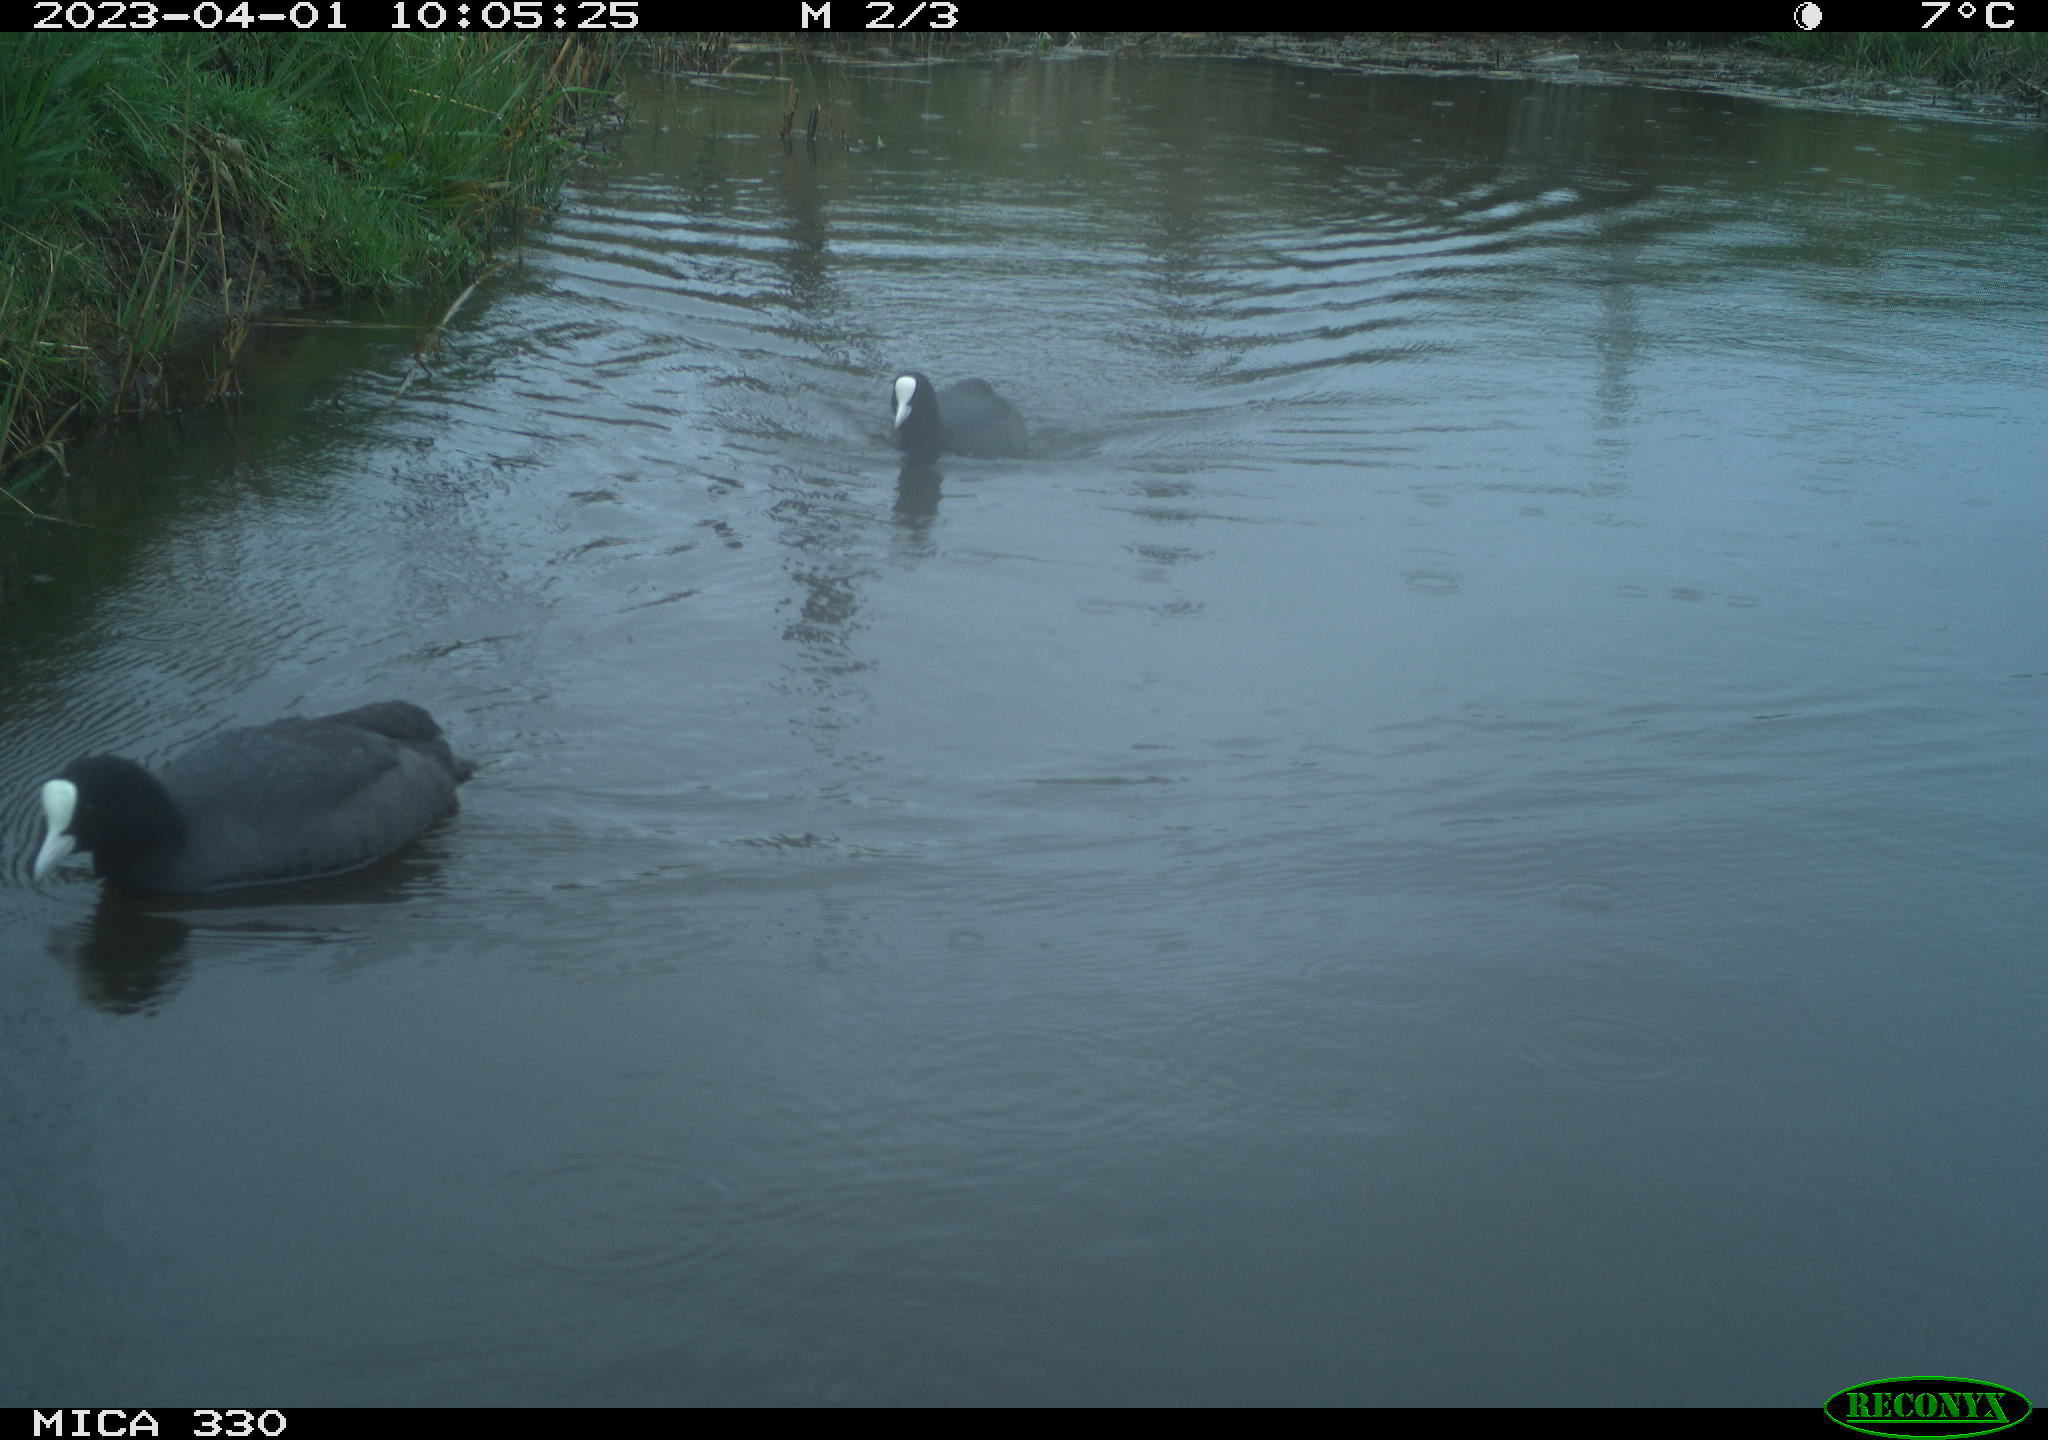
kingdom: Animalia
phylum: Chordata
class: Aves
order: Gruiformes
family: Rallidae
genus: Fulica
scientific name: Fulica atra
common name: Eurasian coot
